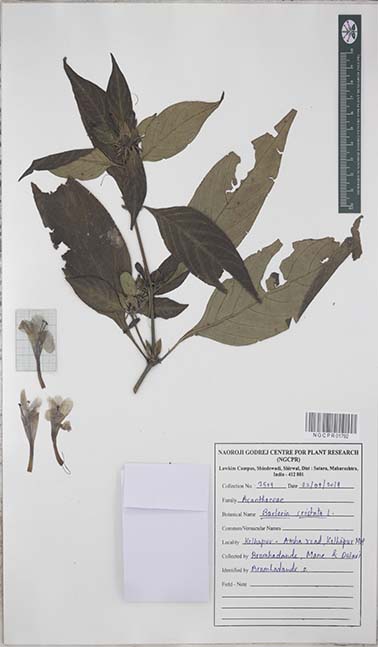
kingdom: Plantae
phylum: Tracheophyta
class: Magnoliopsida
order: Lamiales
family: Acanthaceae
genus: Barleria
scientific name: Barleria cristata
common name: Crested philippine violet
